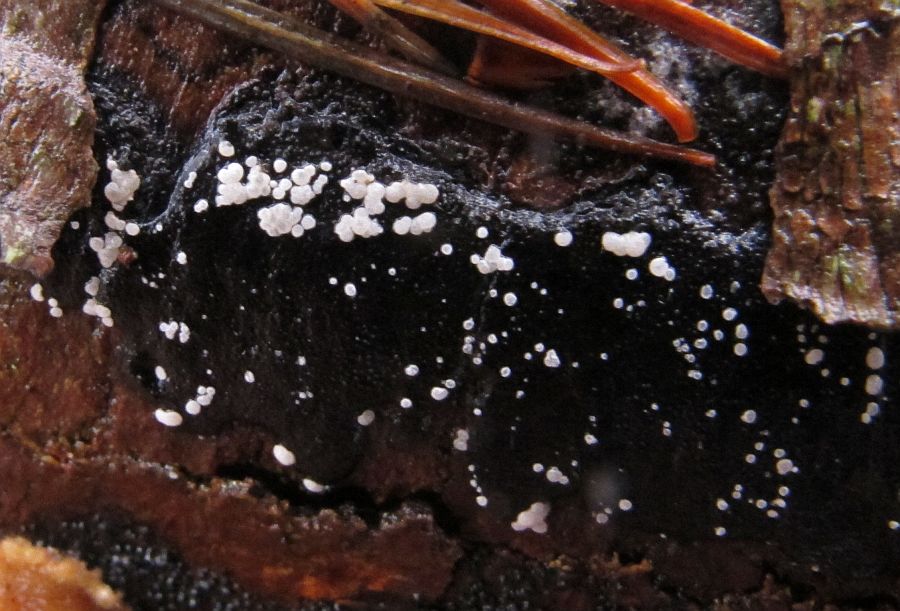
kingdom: Fungi
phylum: Ascomycota
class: Leotiomycetes
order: Helotiales
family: Hyaloscyphaceae
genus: Polydesmia
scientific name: Polydesmia pruinosa
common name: dunskive
